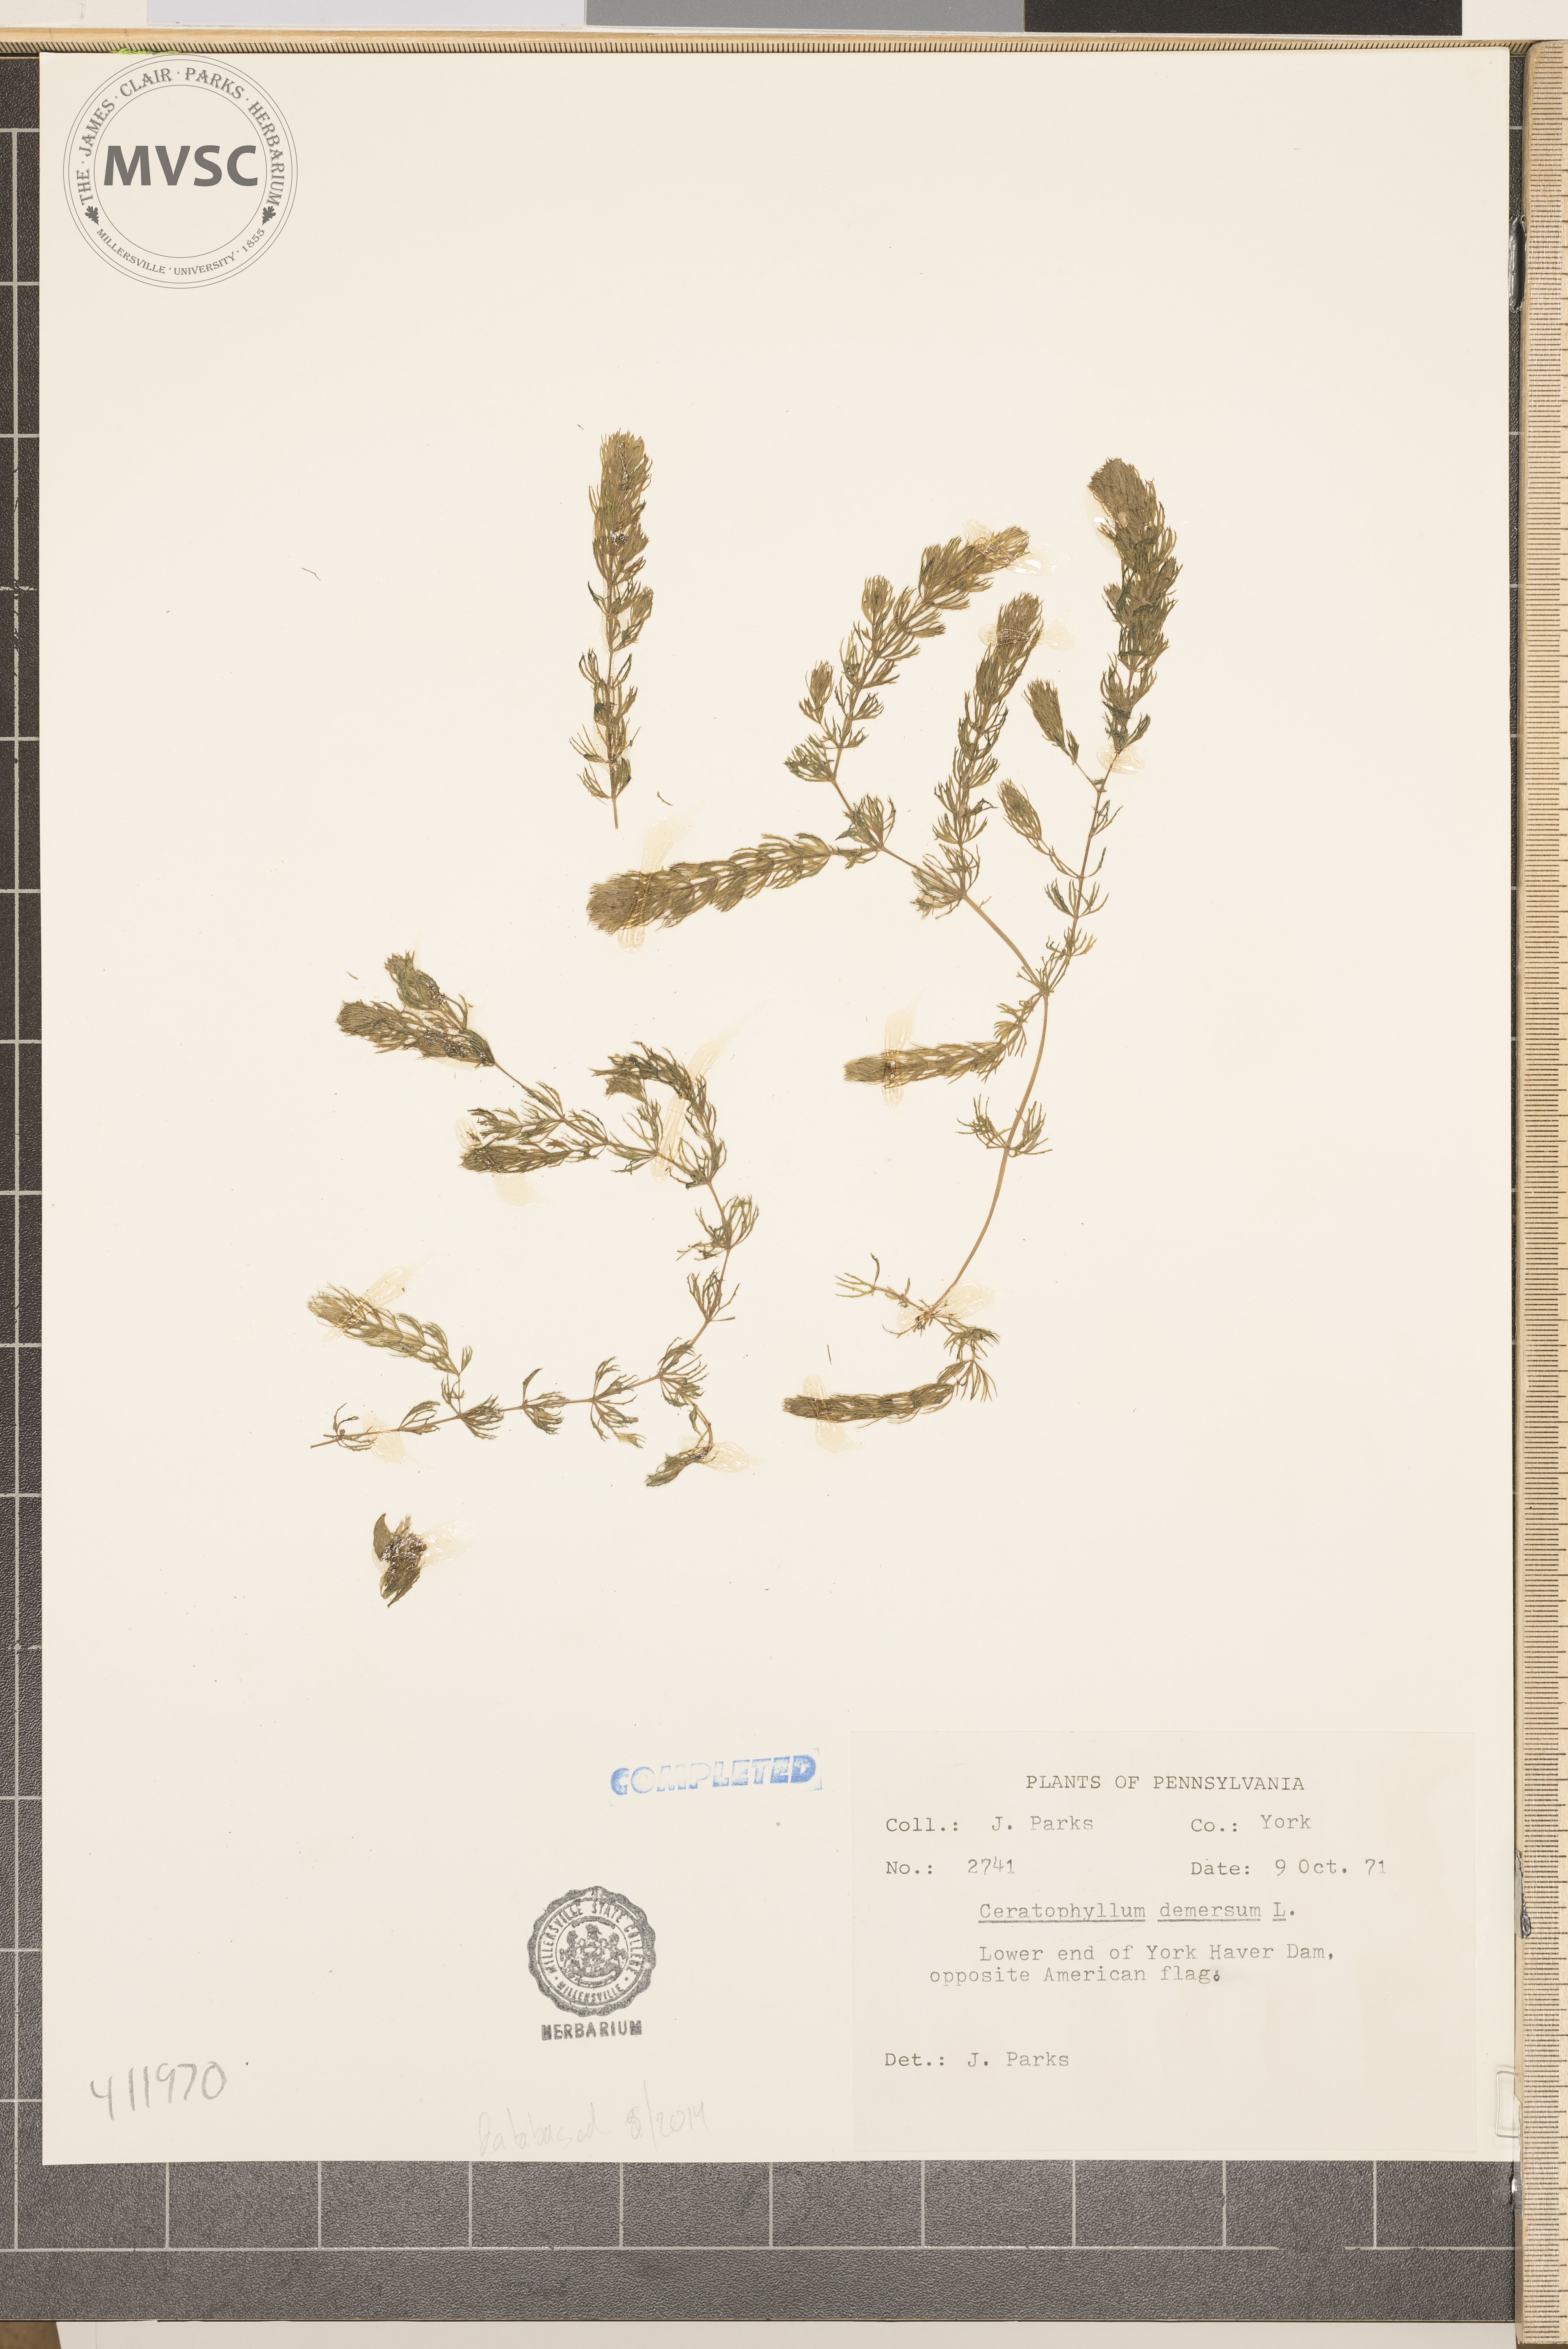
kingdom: Plantae
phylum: Tracheophyta
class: Magnoliopsida
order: Ceratophyllales
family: Ceratophyllaceae
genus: Ceratophyllum
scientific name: Ceratophyllum demersum
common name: Coontail
